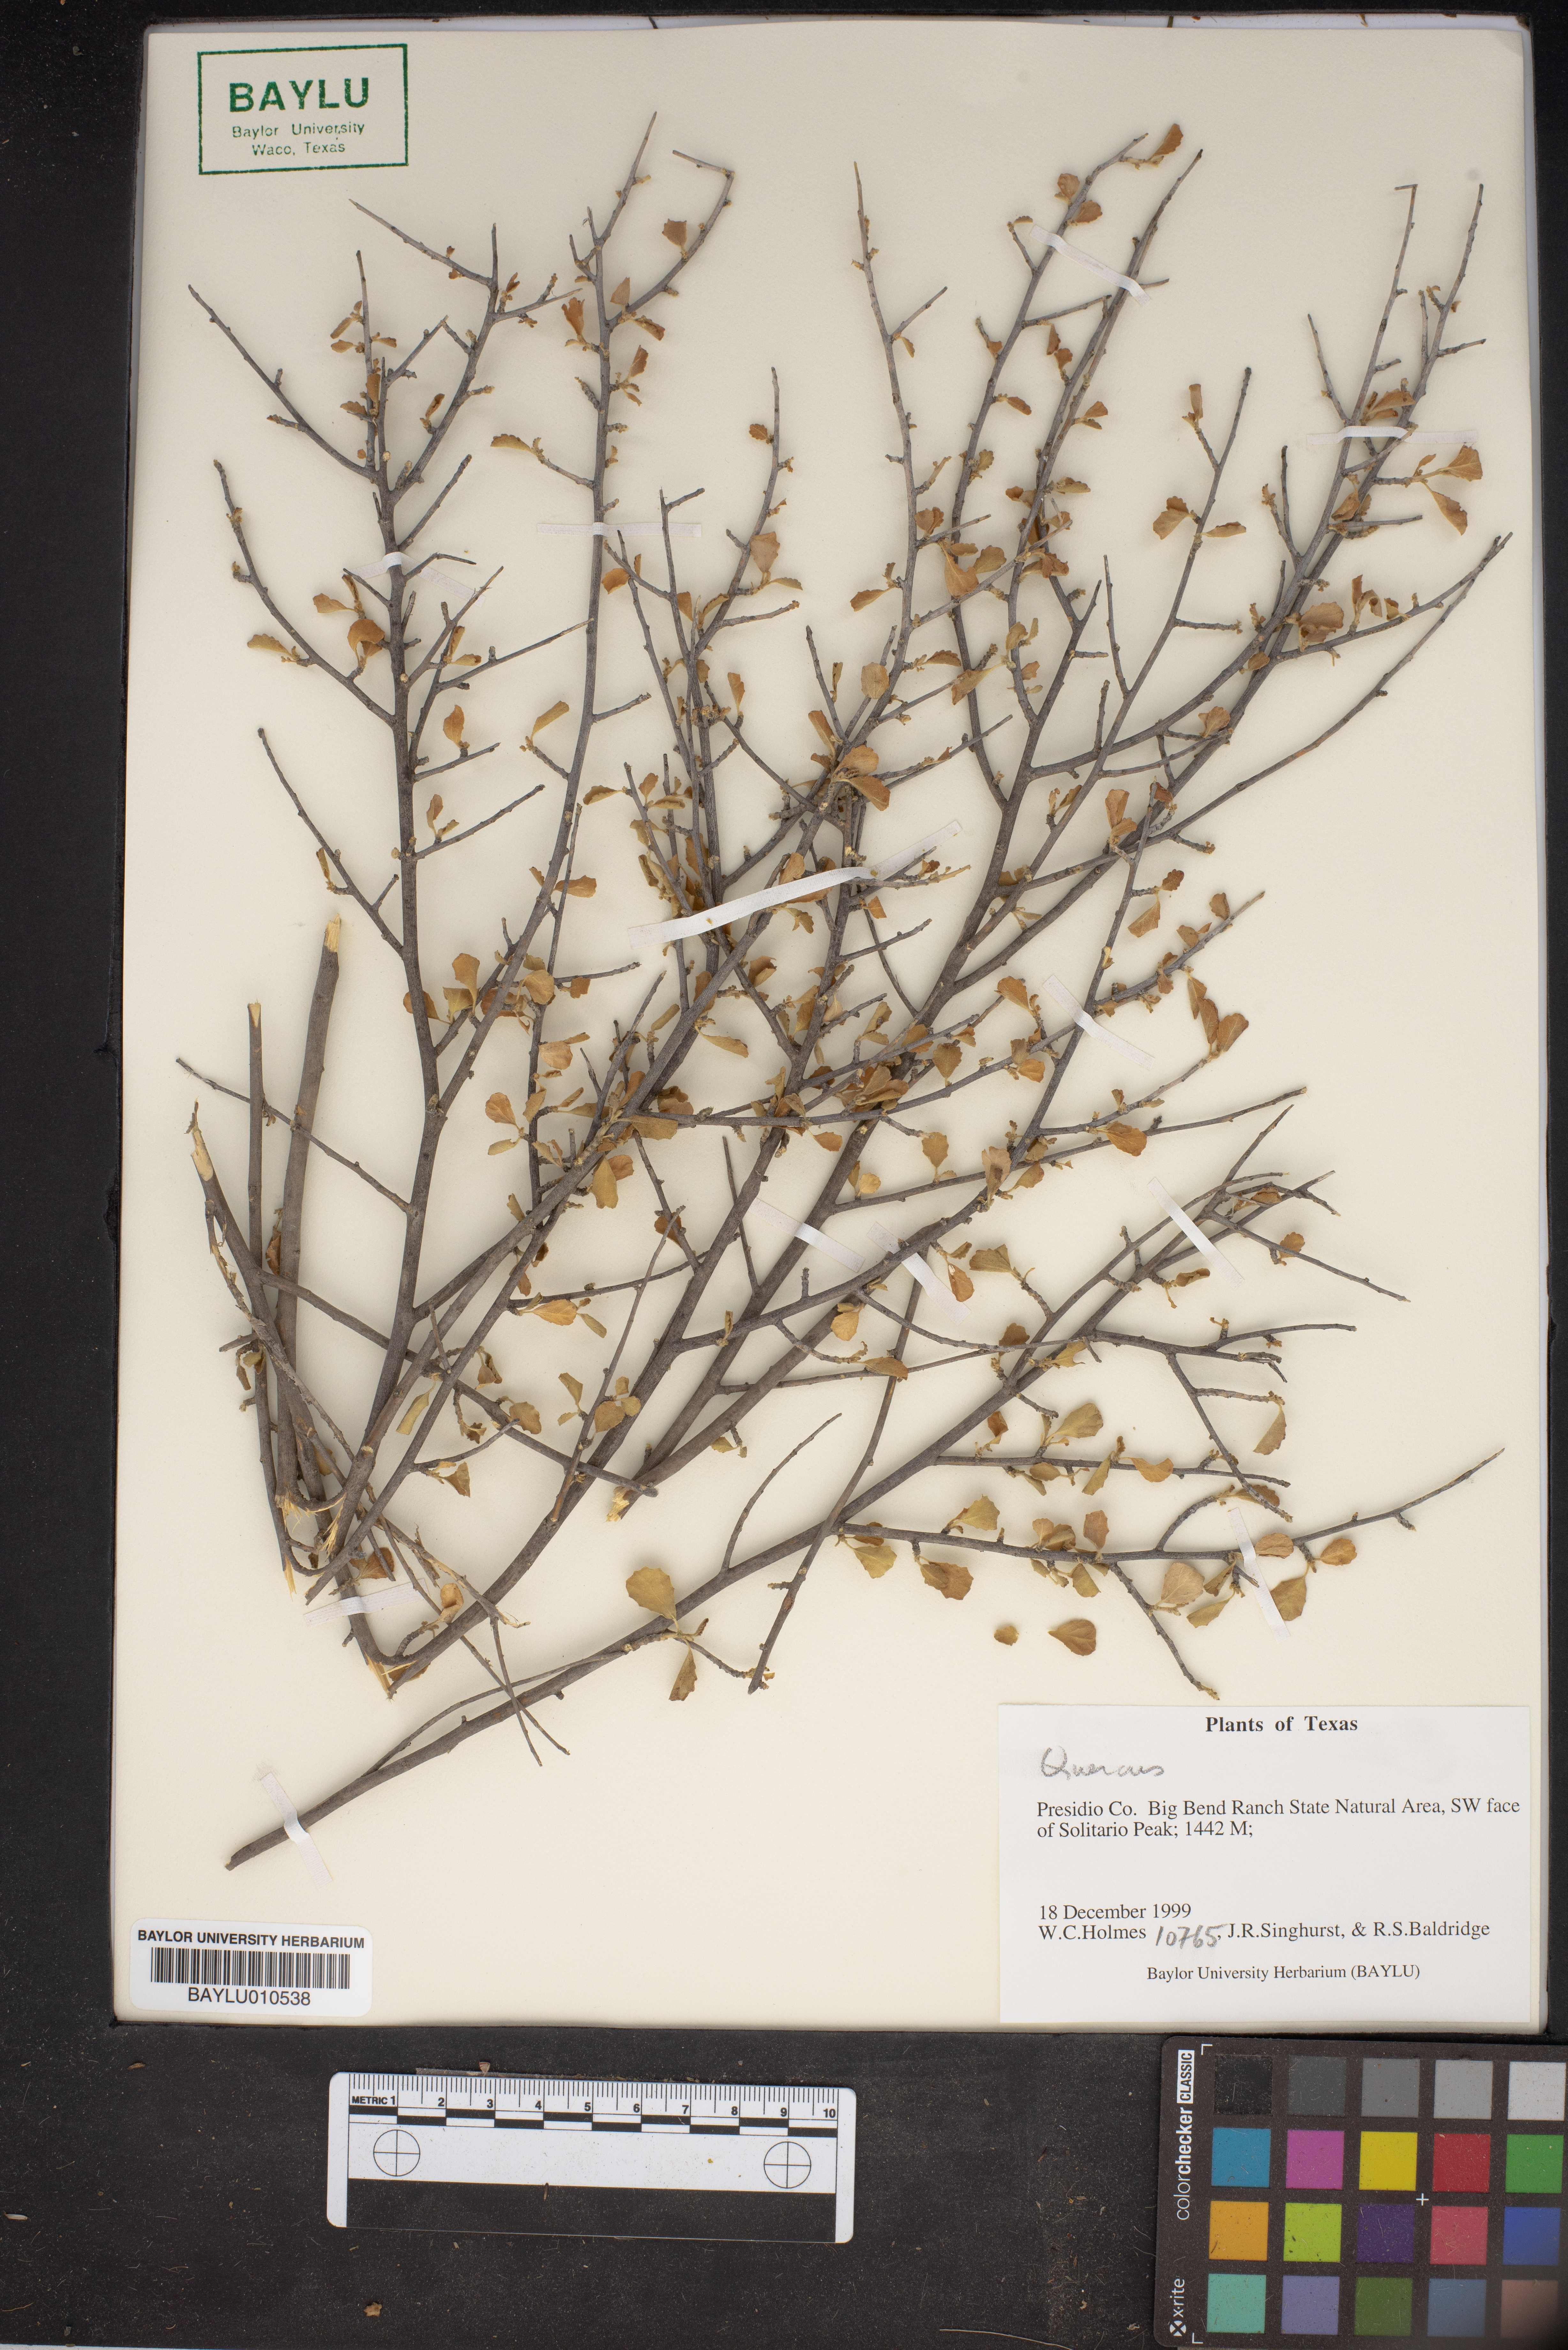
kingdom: Plantae
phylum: Tracheophyta
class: Magnoliopsida
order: Fagales
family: Fagaceae
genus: Quercus
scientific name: Quercus
